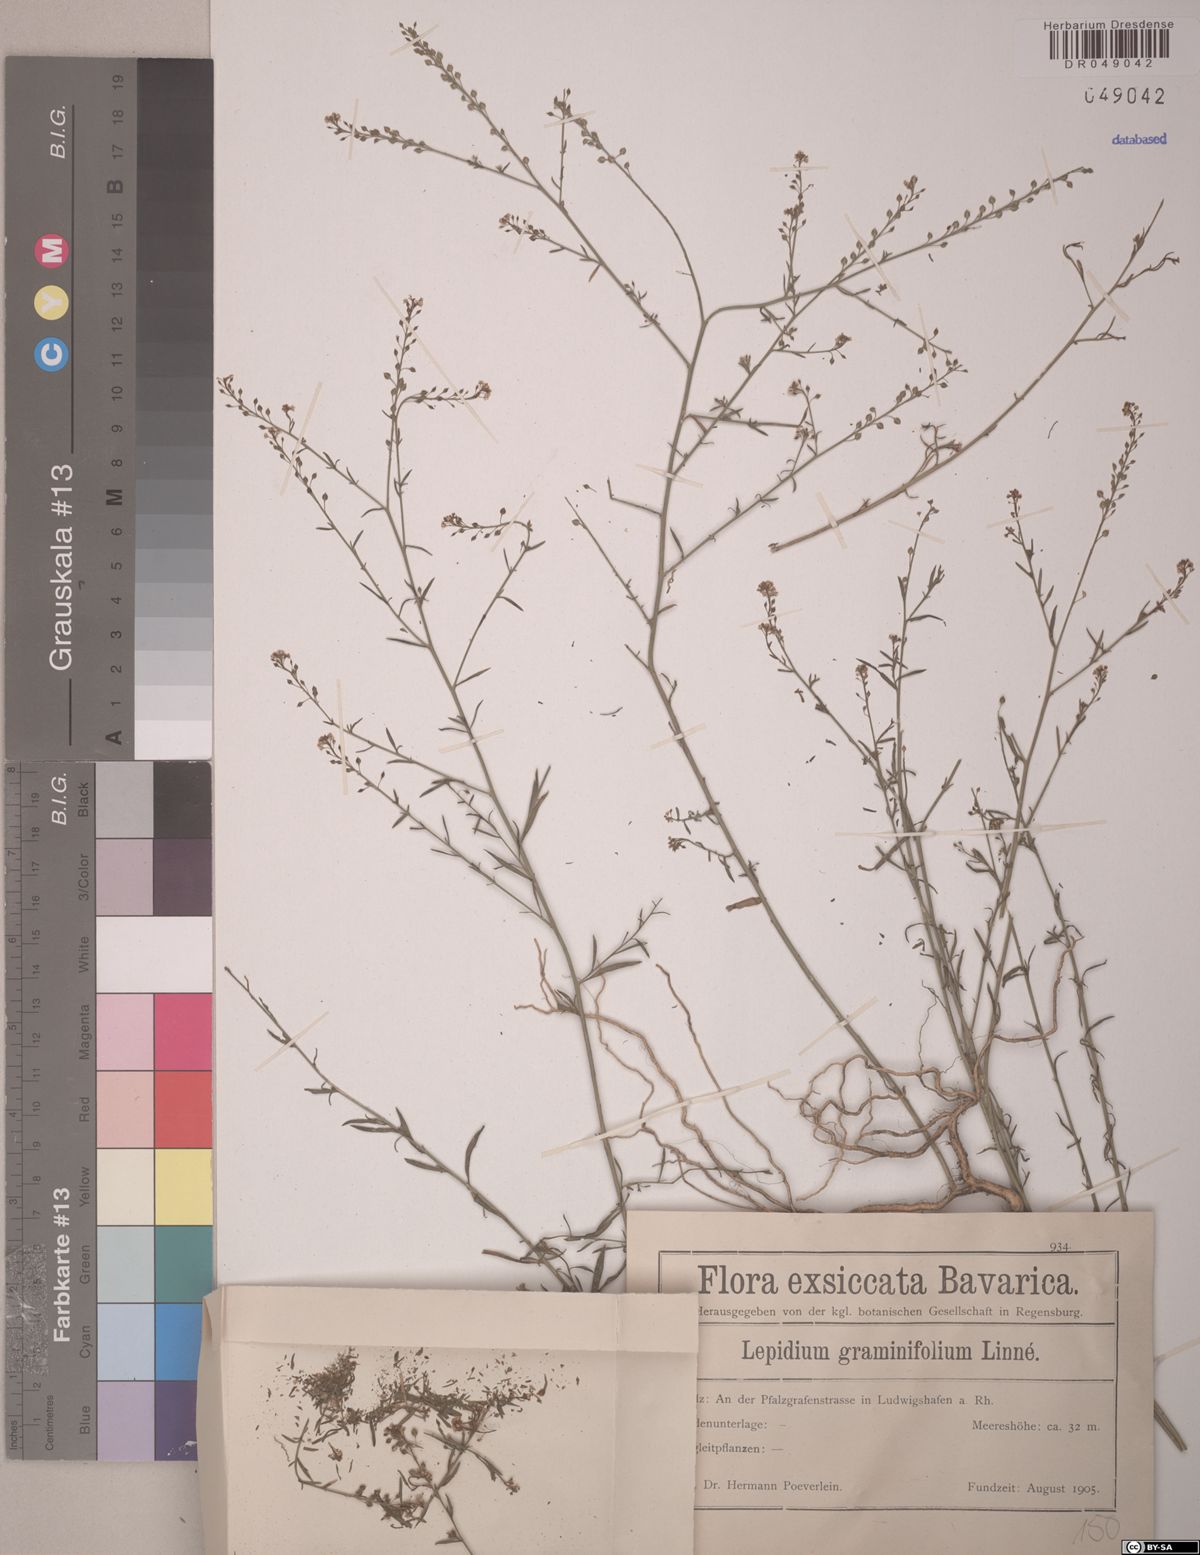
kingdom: Plantae
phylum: Tracheophyta
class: Magnoliopsida
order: Brassicales
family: Brassicaceae
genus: Lepidium
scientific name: Lepidium graminifolium
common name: Tall pepperwort
